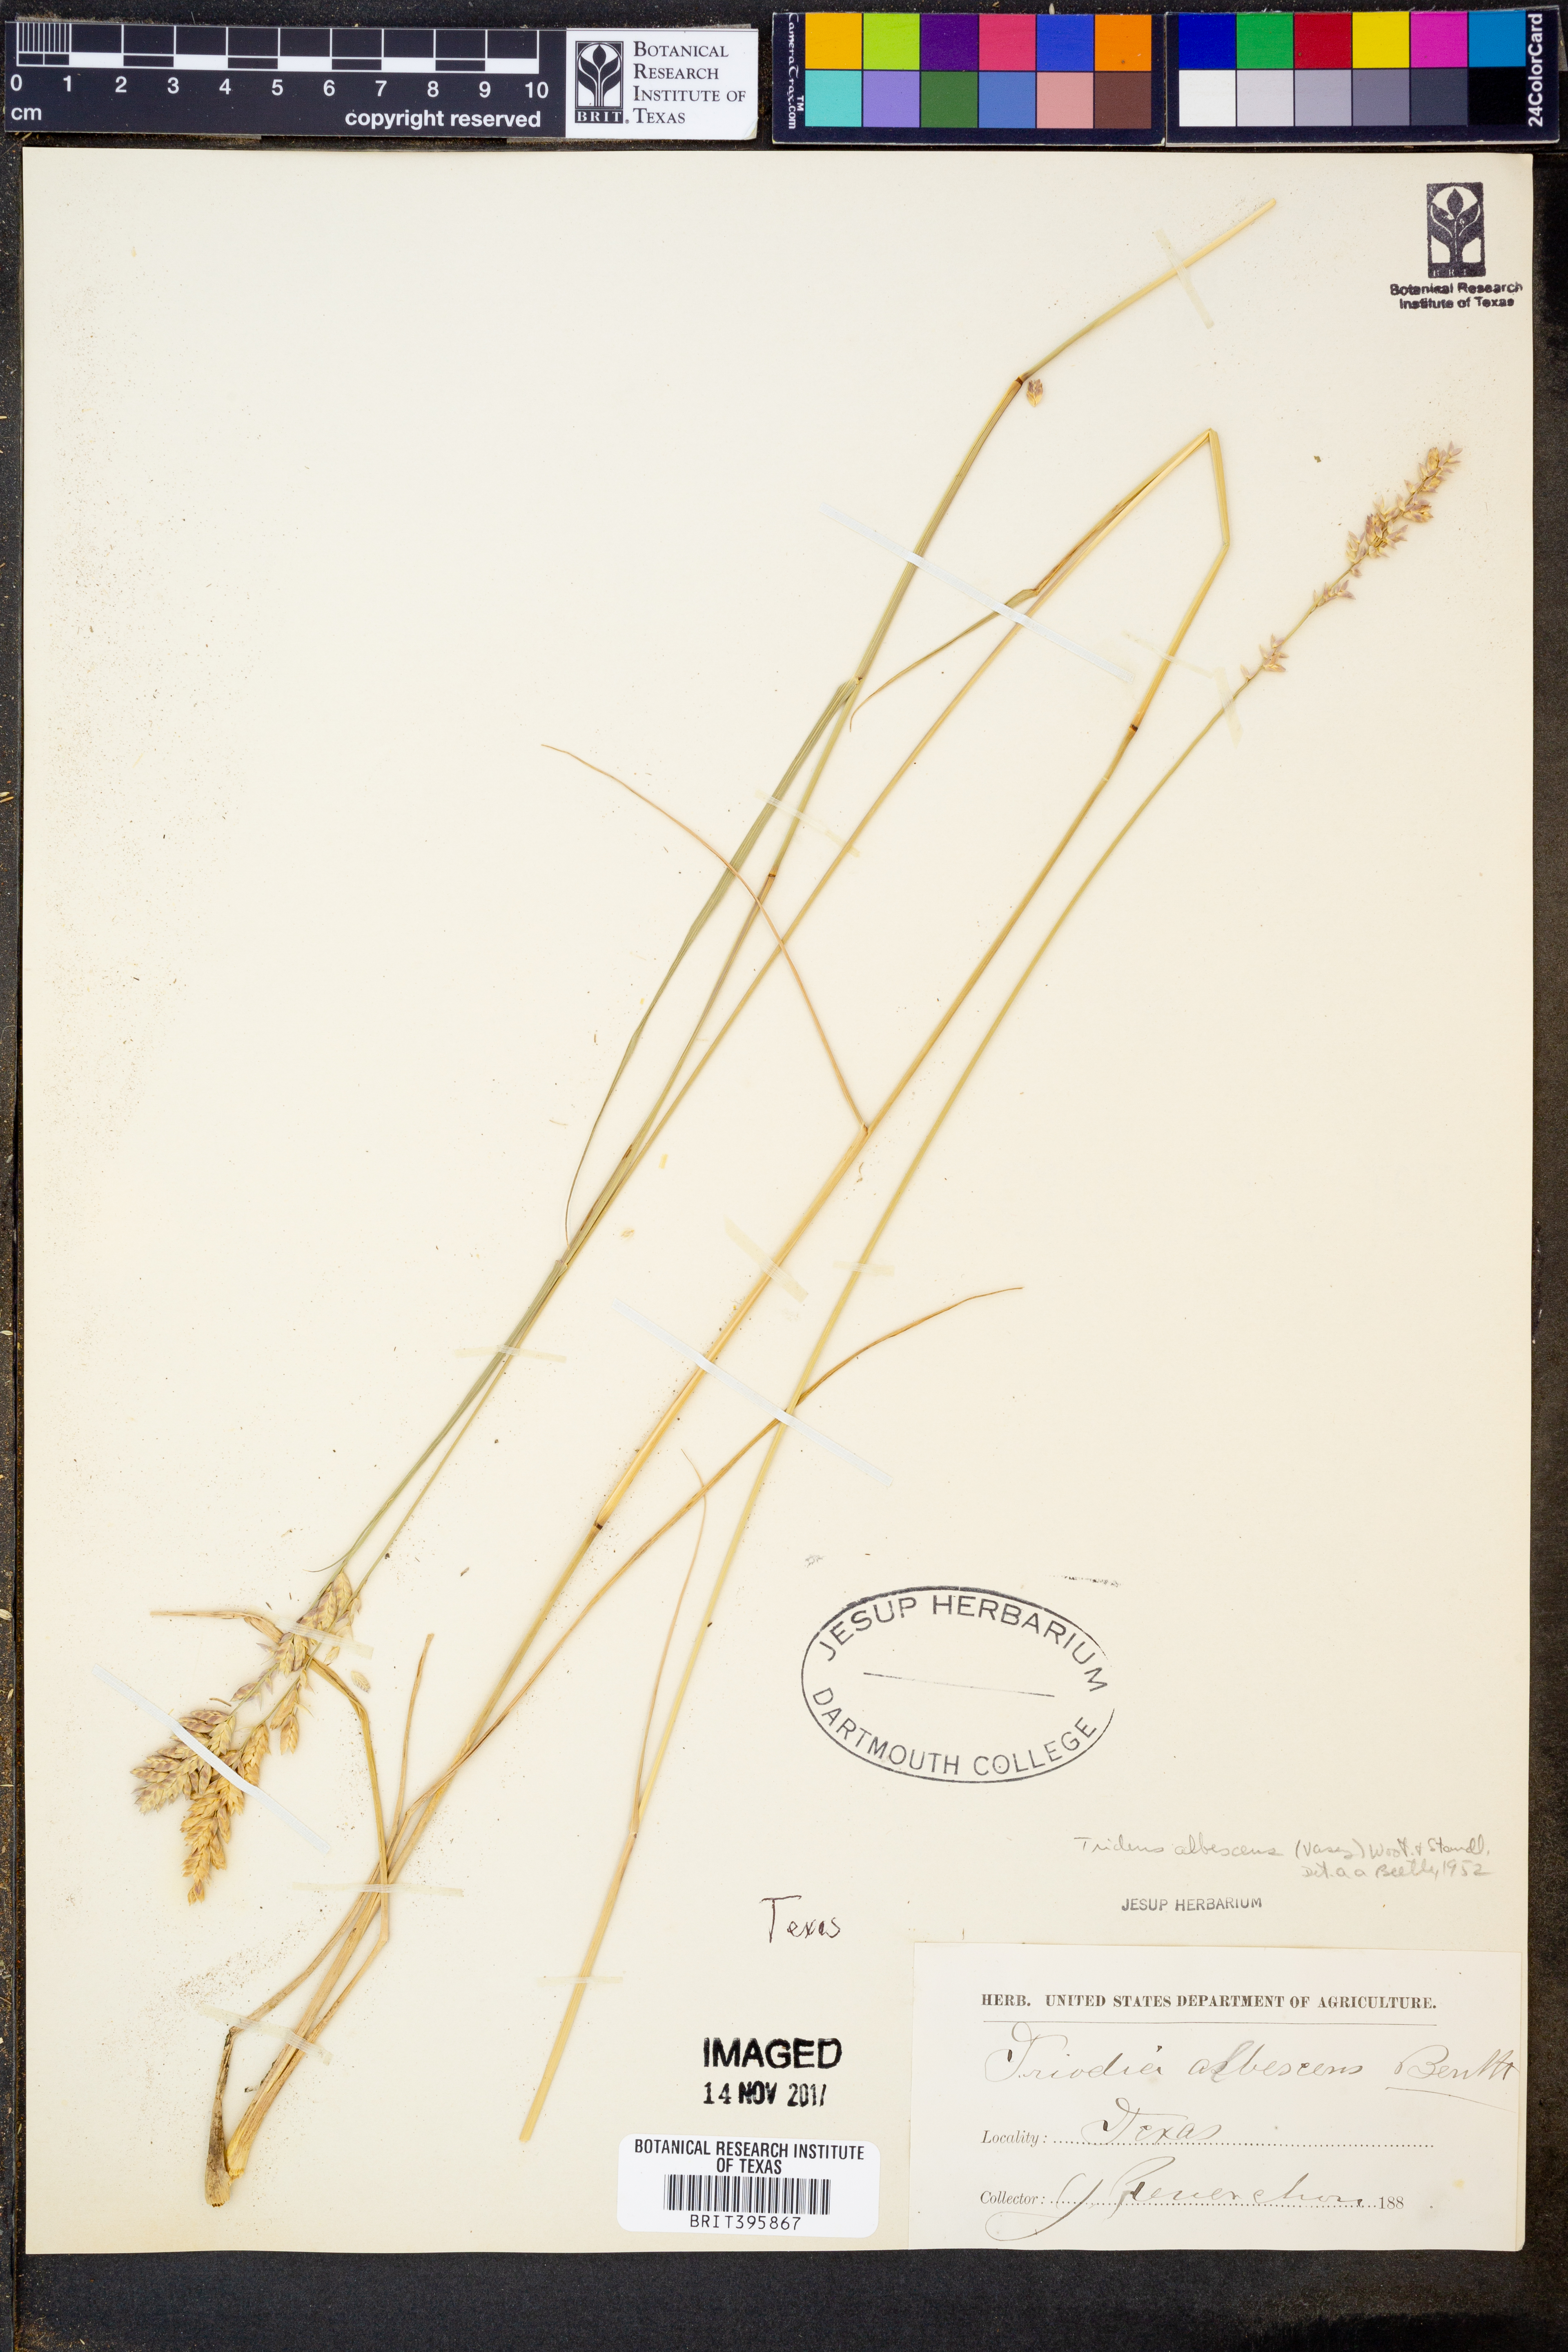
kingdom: Plantae
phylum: Tracheophyta
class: Liliopsida
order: Poales
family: Poaceae
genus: Tridens
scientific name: Tridens albescens
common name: White tridens
